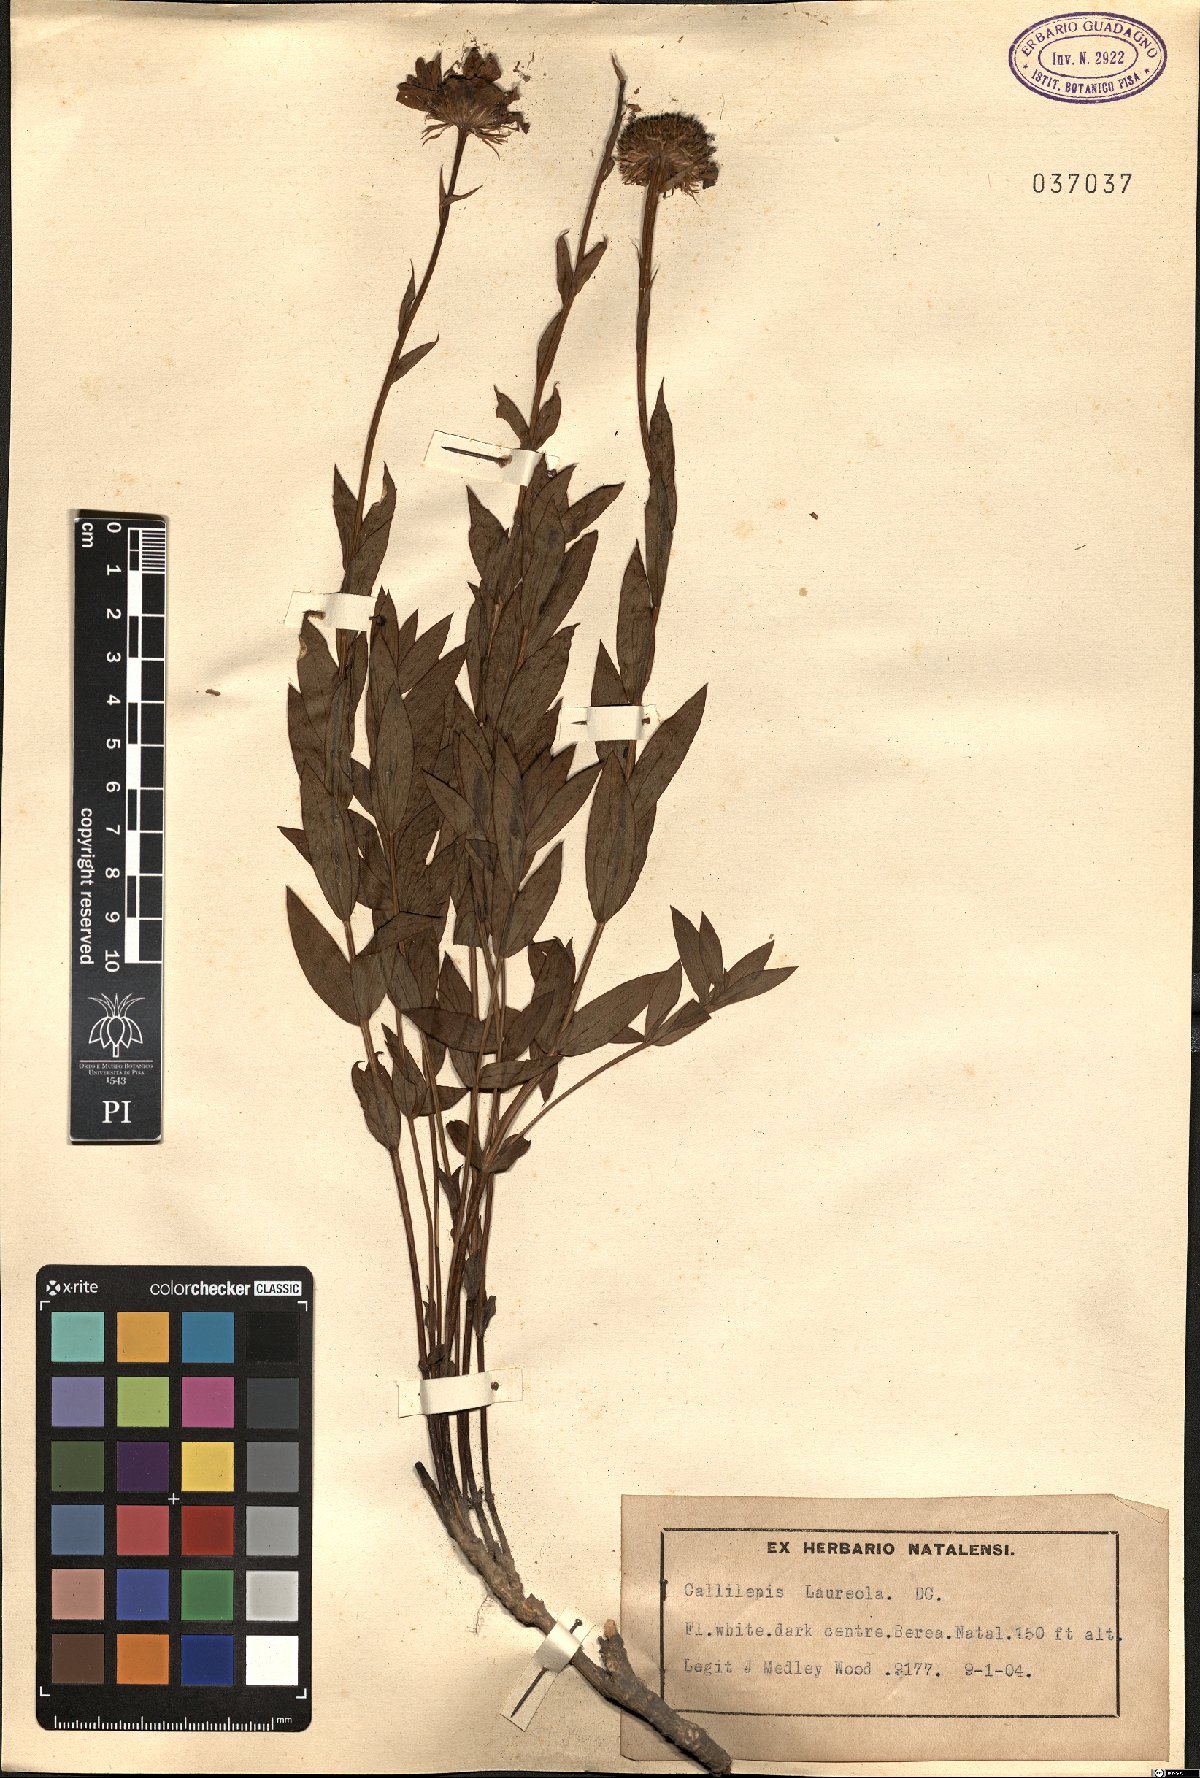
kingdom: Plantae
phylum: Tracheophyta
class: Magnoliopsida
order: Asterales
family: Asteraceae
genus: Callilepis
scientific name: Callilepis laureola
